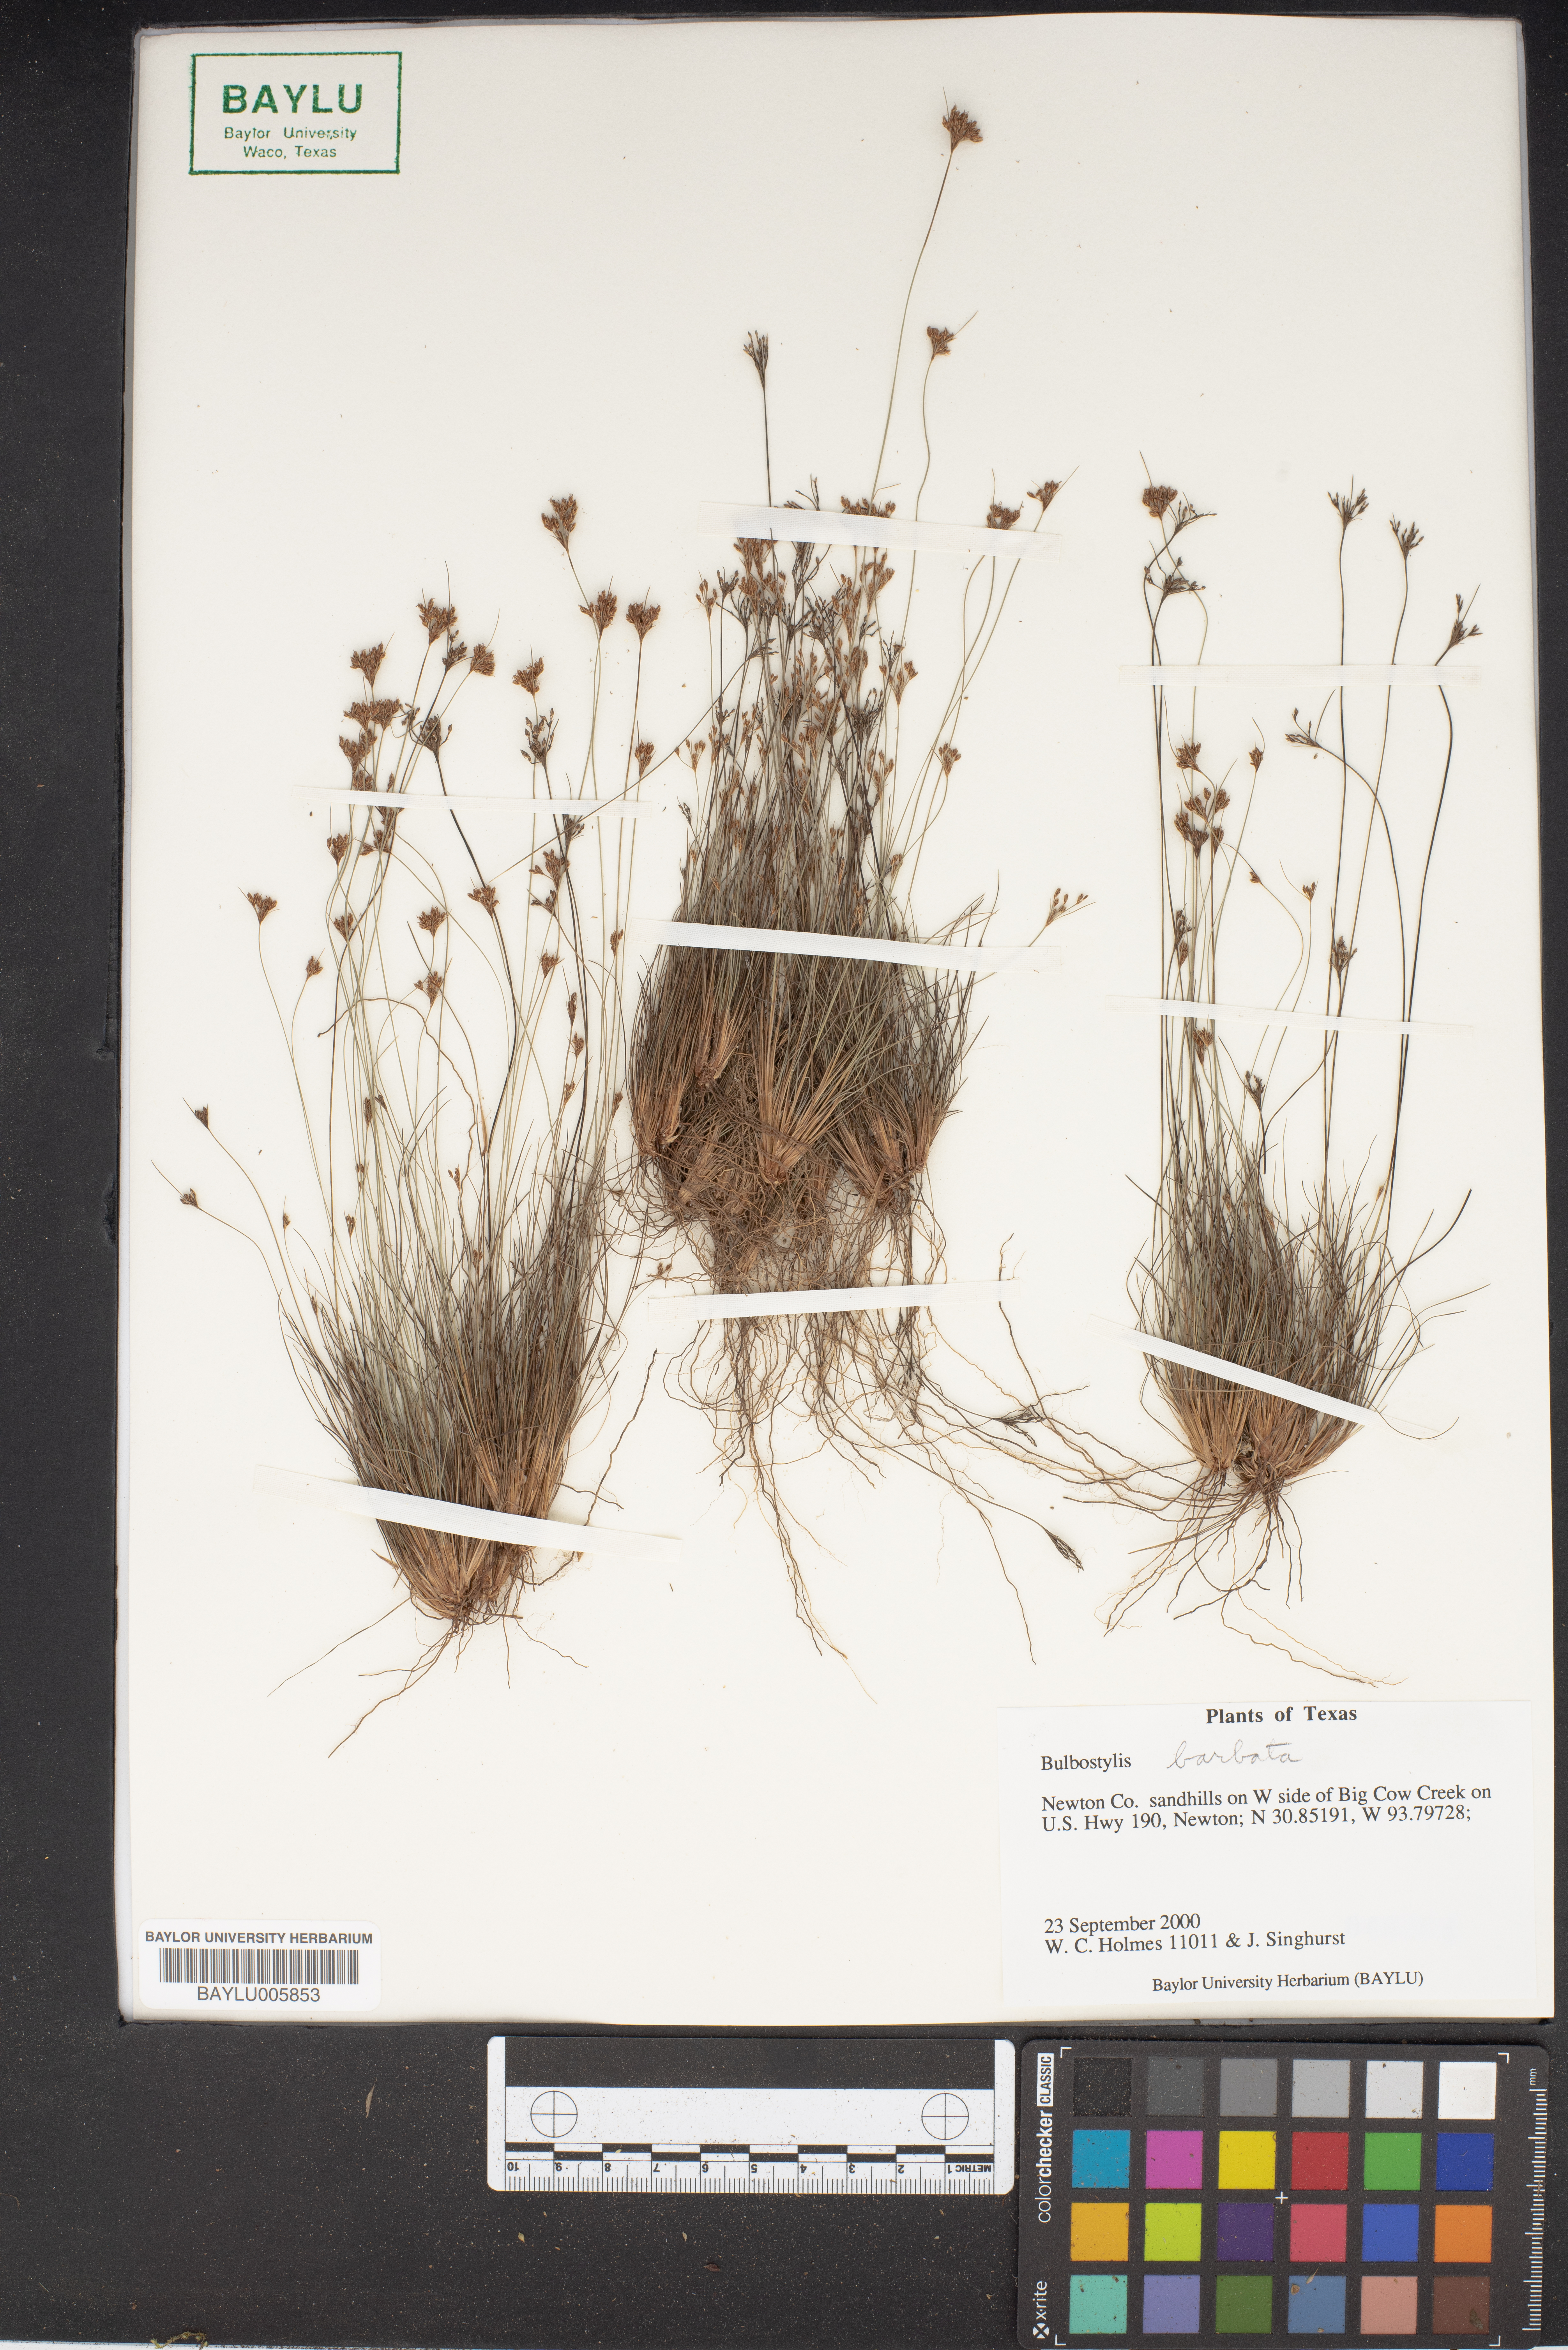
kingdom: Plantae
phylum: Tracheophyta
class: Liliopsida
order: Poales
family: Cyperaceae
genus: Bulbostylis
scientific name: Bulbostylis barbata
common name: Watergrass
